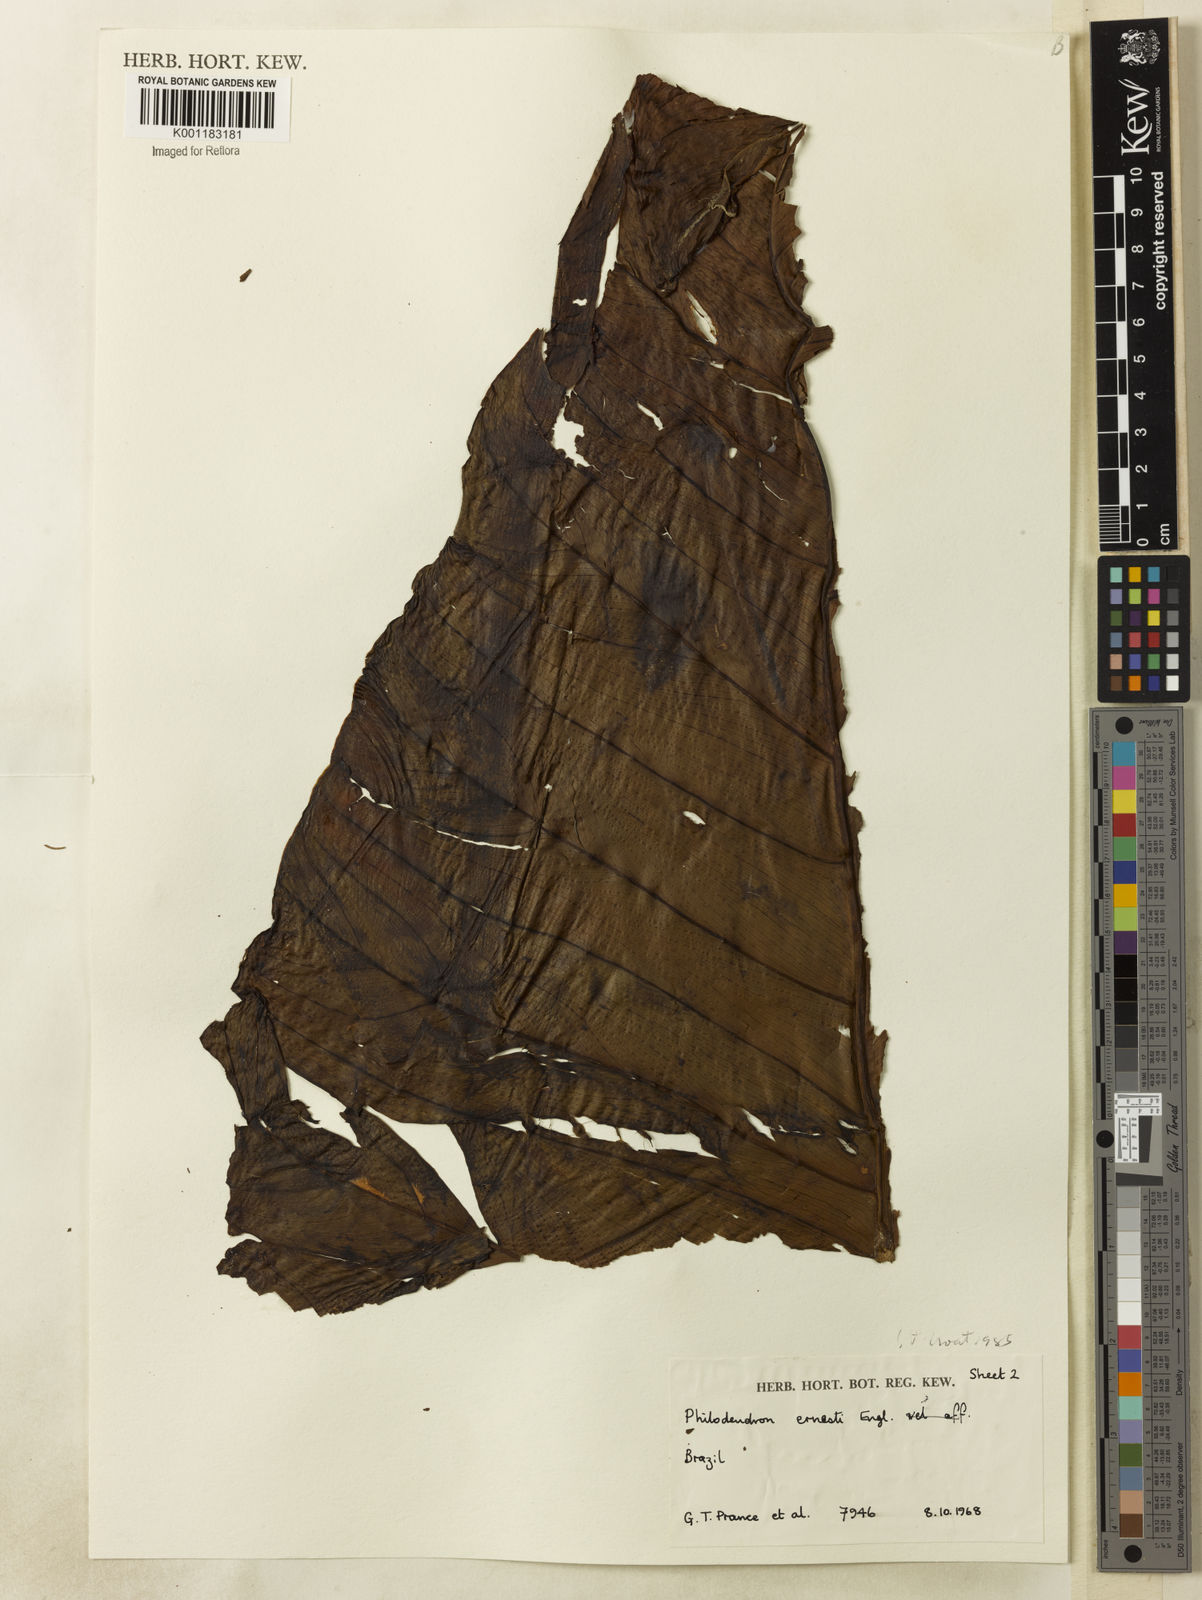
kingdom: Plantae
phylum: Tracheophyta
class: Liliopsida
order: Alismatales
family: Araceae
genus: Philodendron
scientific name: Philodendron ernestii
